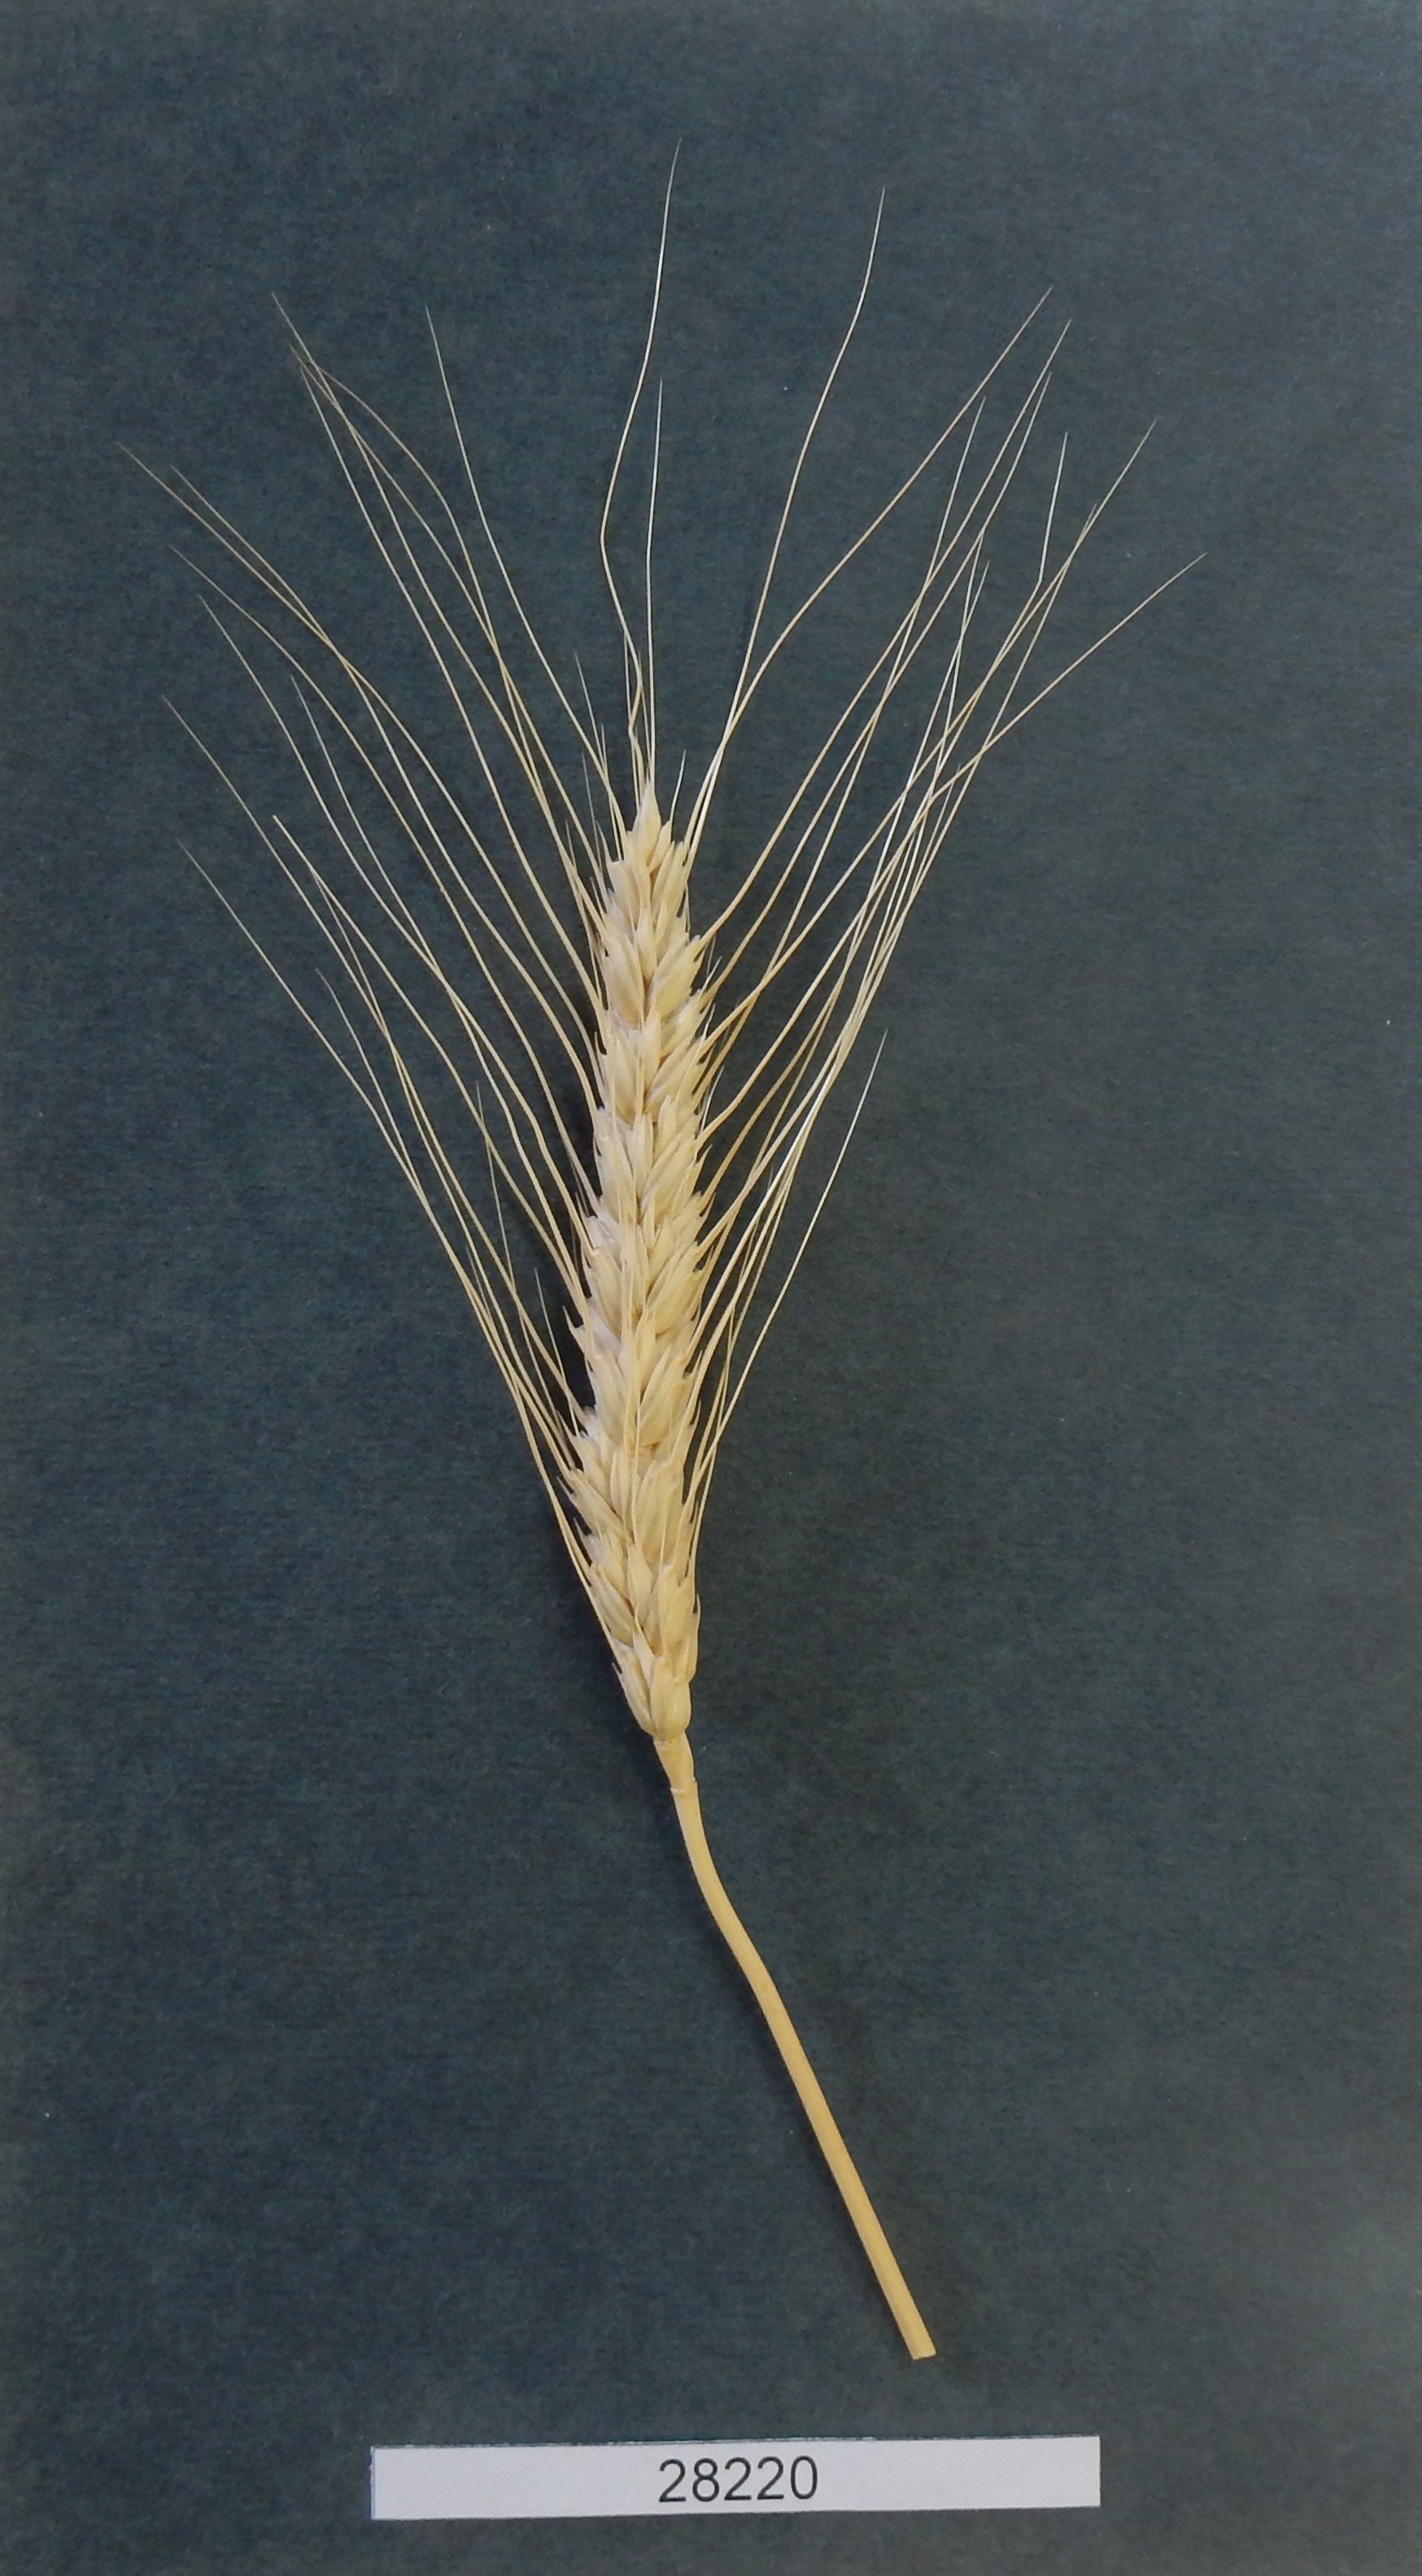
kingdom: Plantae
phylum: Tracheophyta
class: Liliopsida
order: Poales
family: Poaceae
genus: Triticum
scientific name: Triticum
